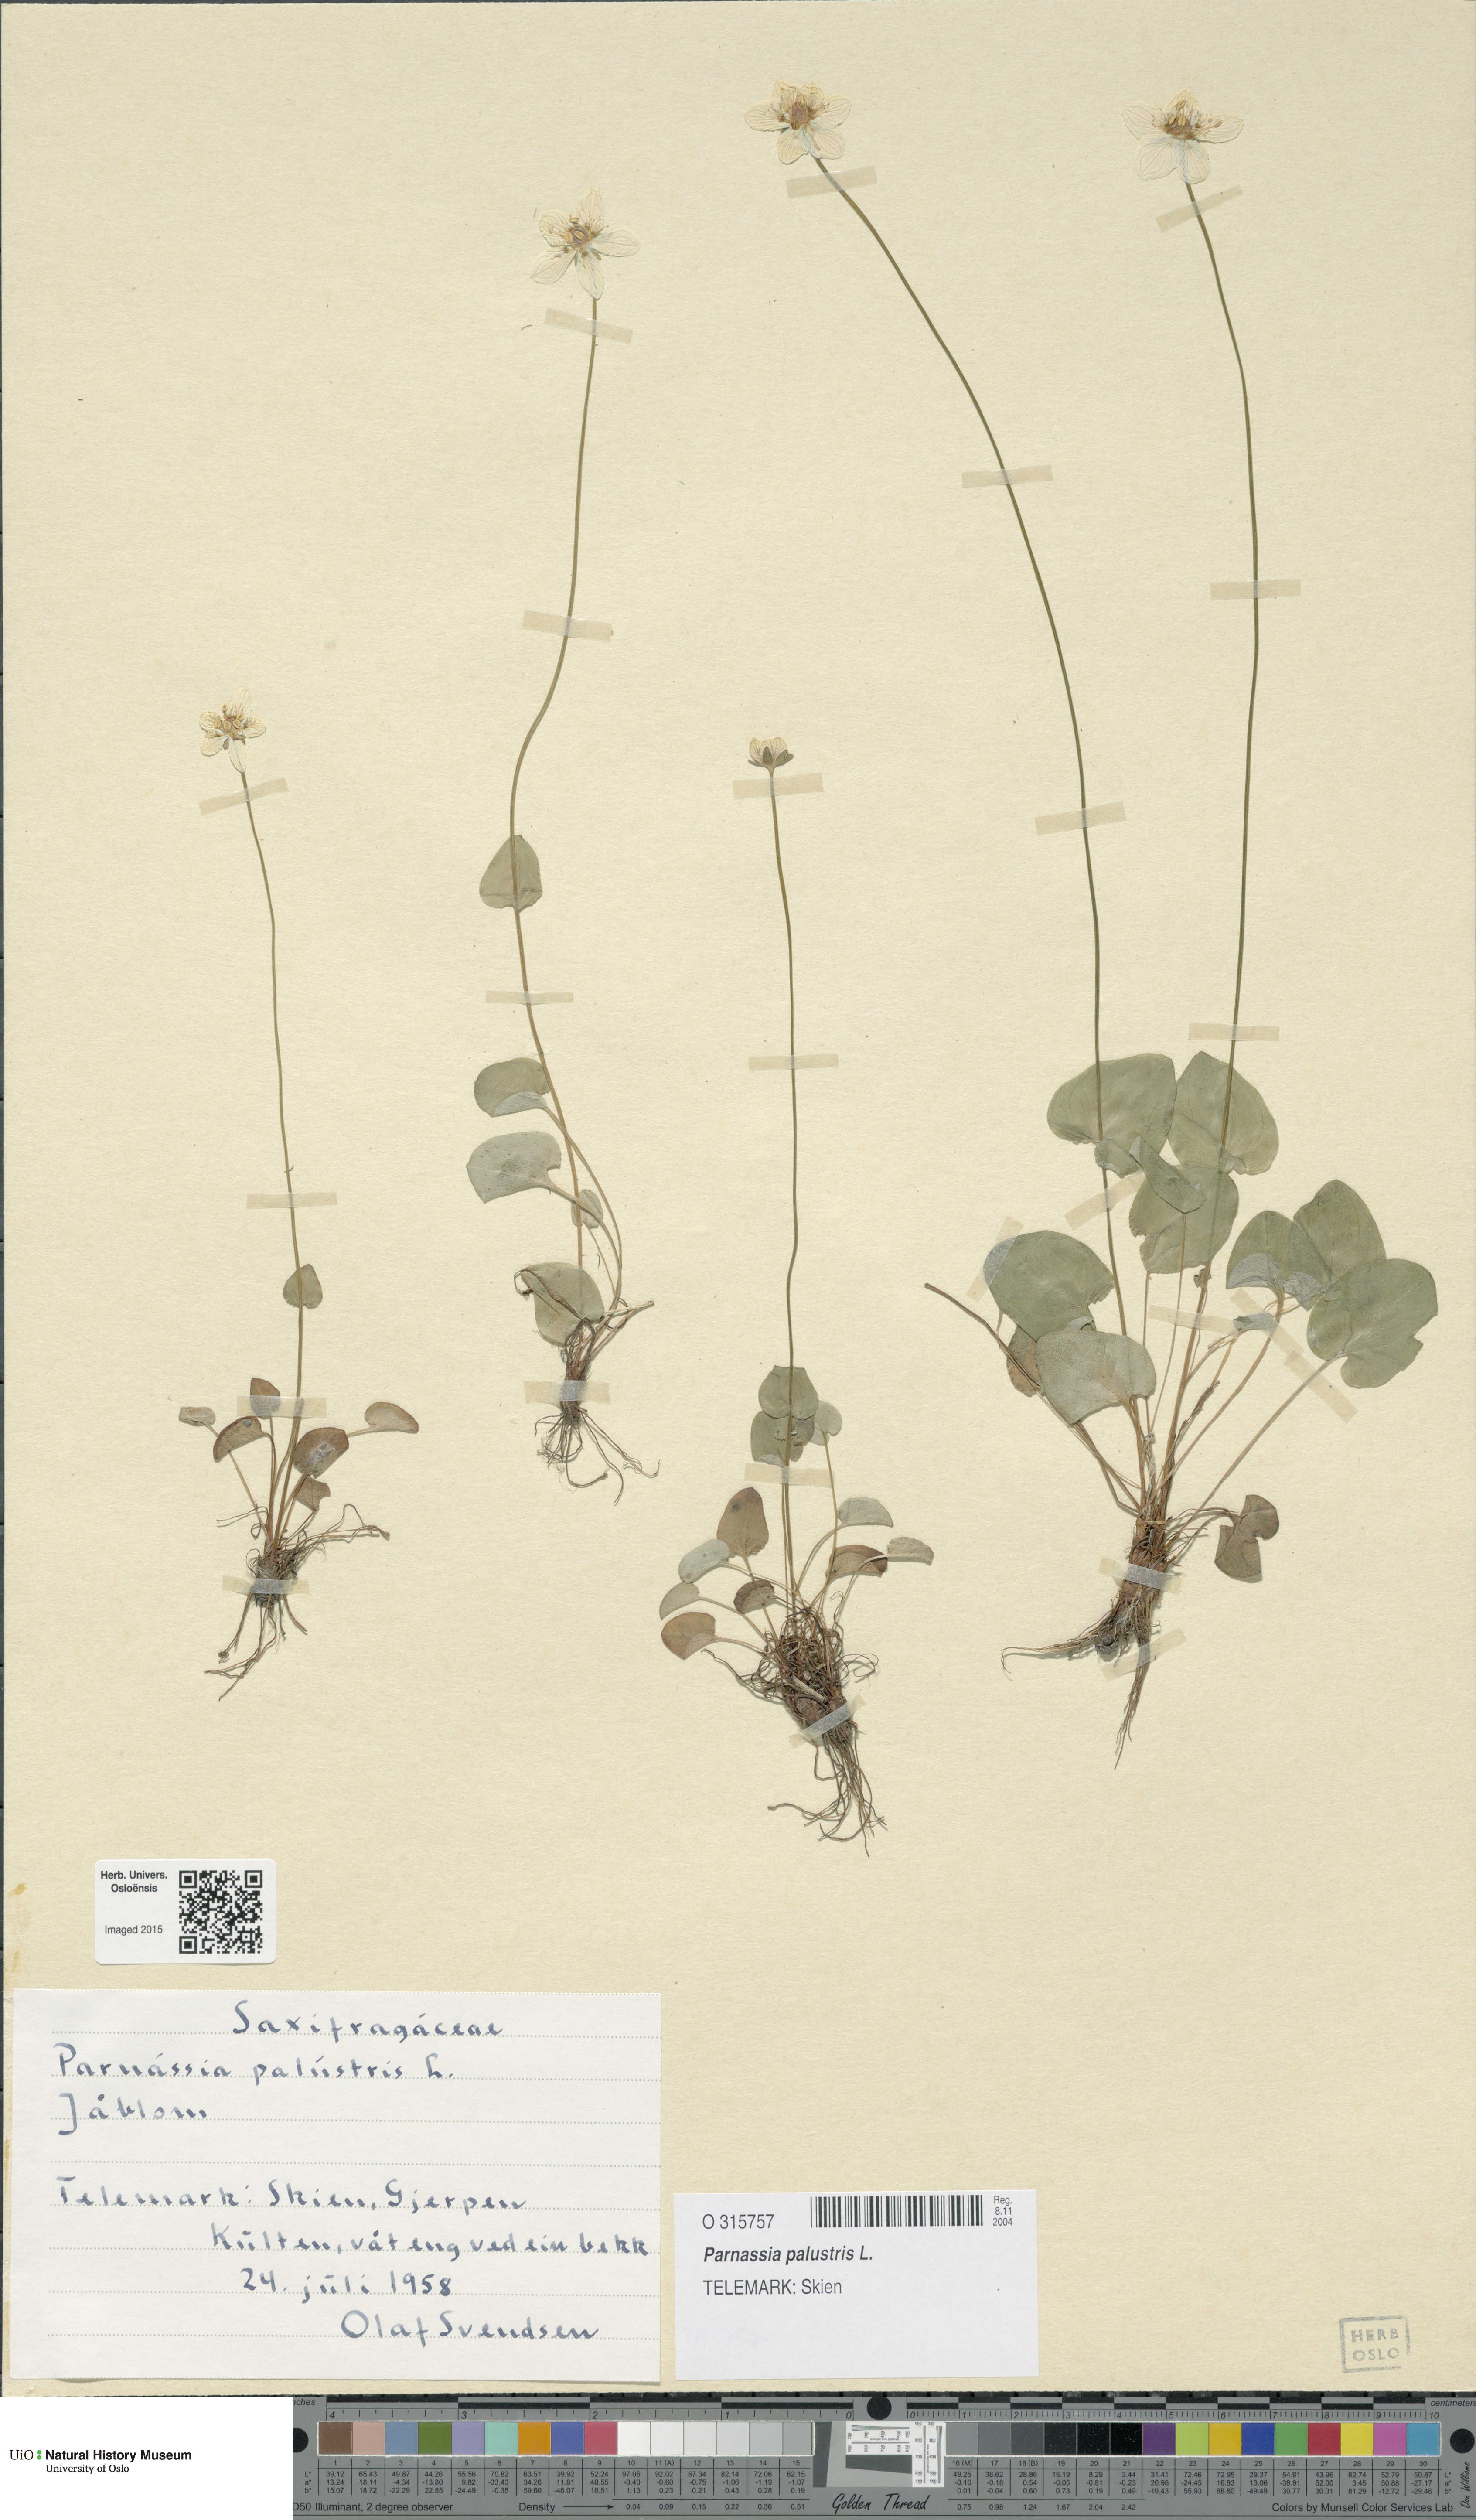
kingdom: Plantae
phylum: Tracheophyta
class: Magnoliopsida
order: Celastrales
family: Parnassiaceae
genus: Parnassia
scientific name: Parnassia palustris
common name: Grass-of-parnassus
